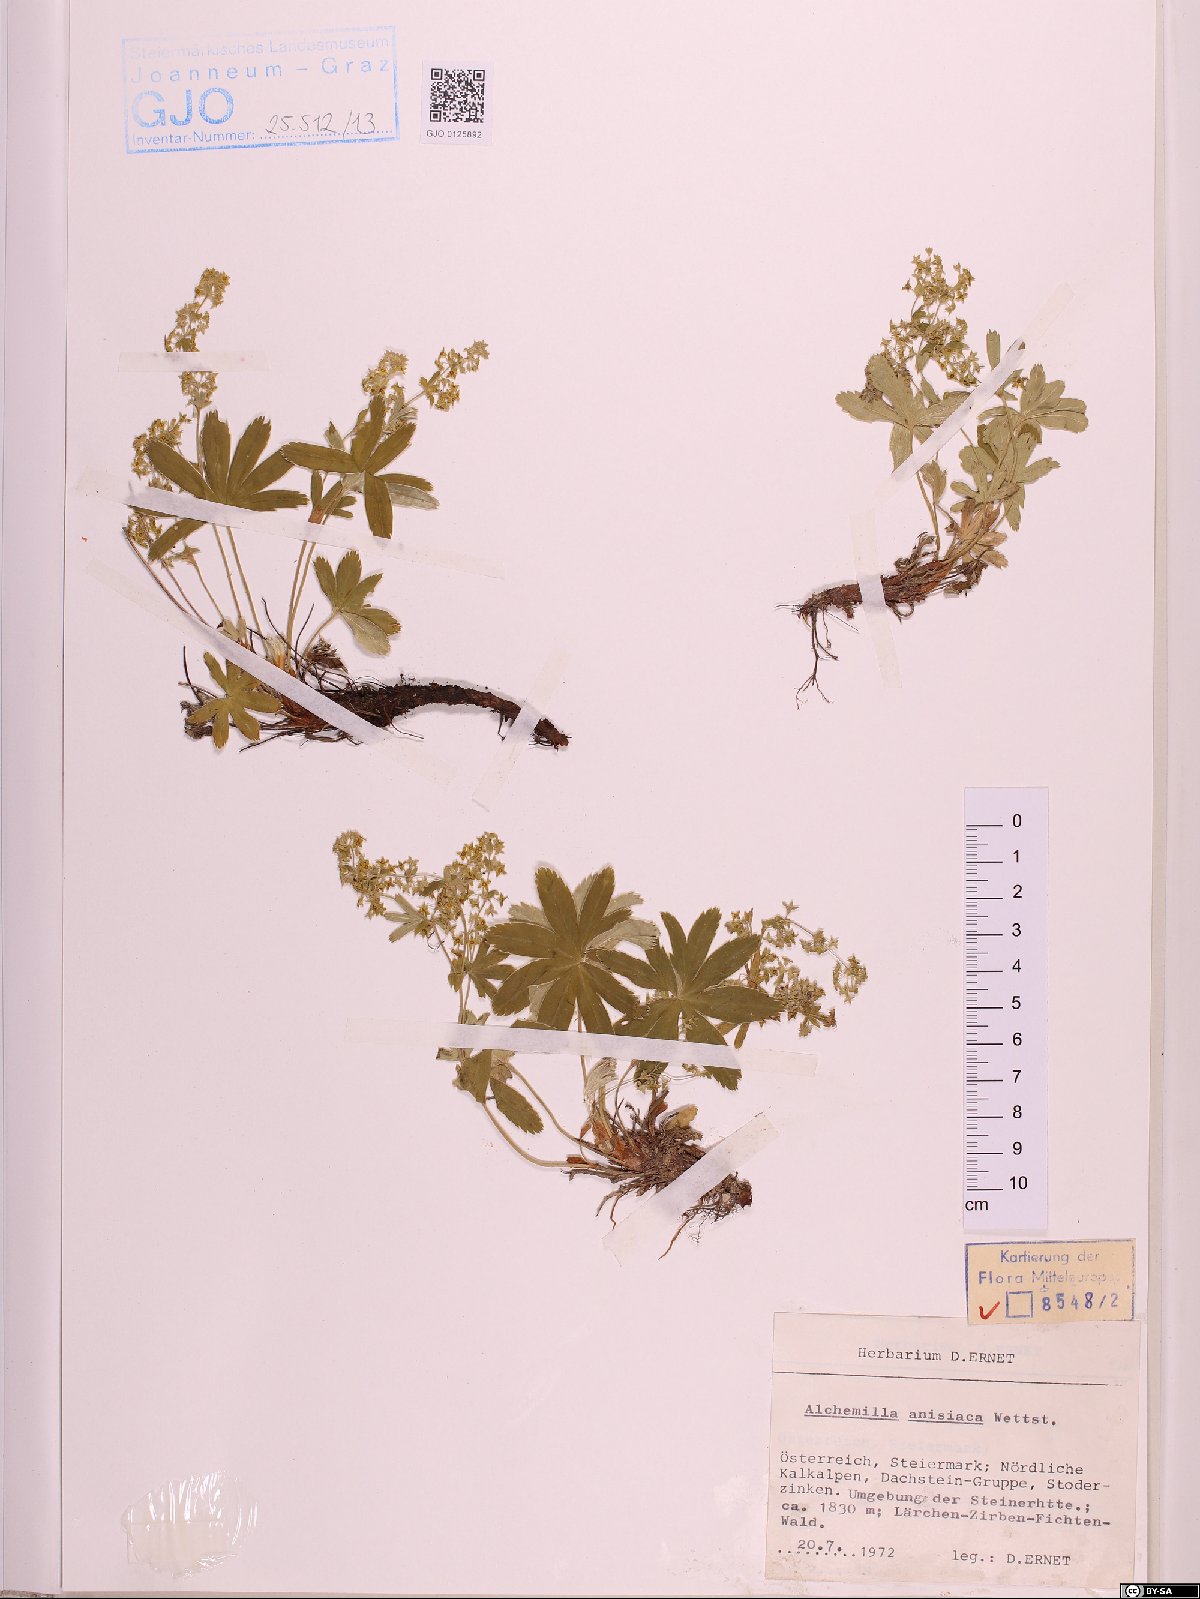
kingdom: Plantae
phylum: Tracheophyta
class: Magnoliopsida
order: Rosales
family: Rosaceae
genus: Alchemilla
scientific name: Alchemilla anisiaca
